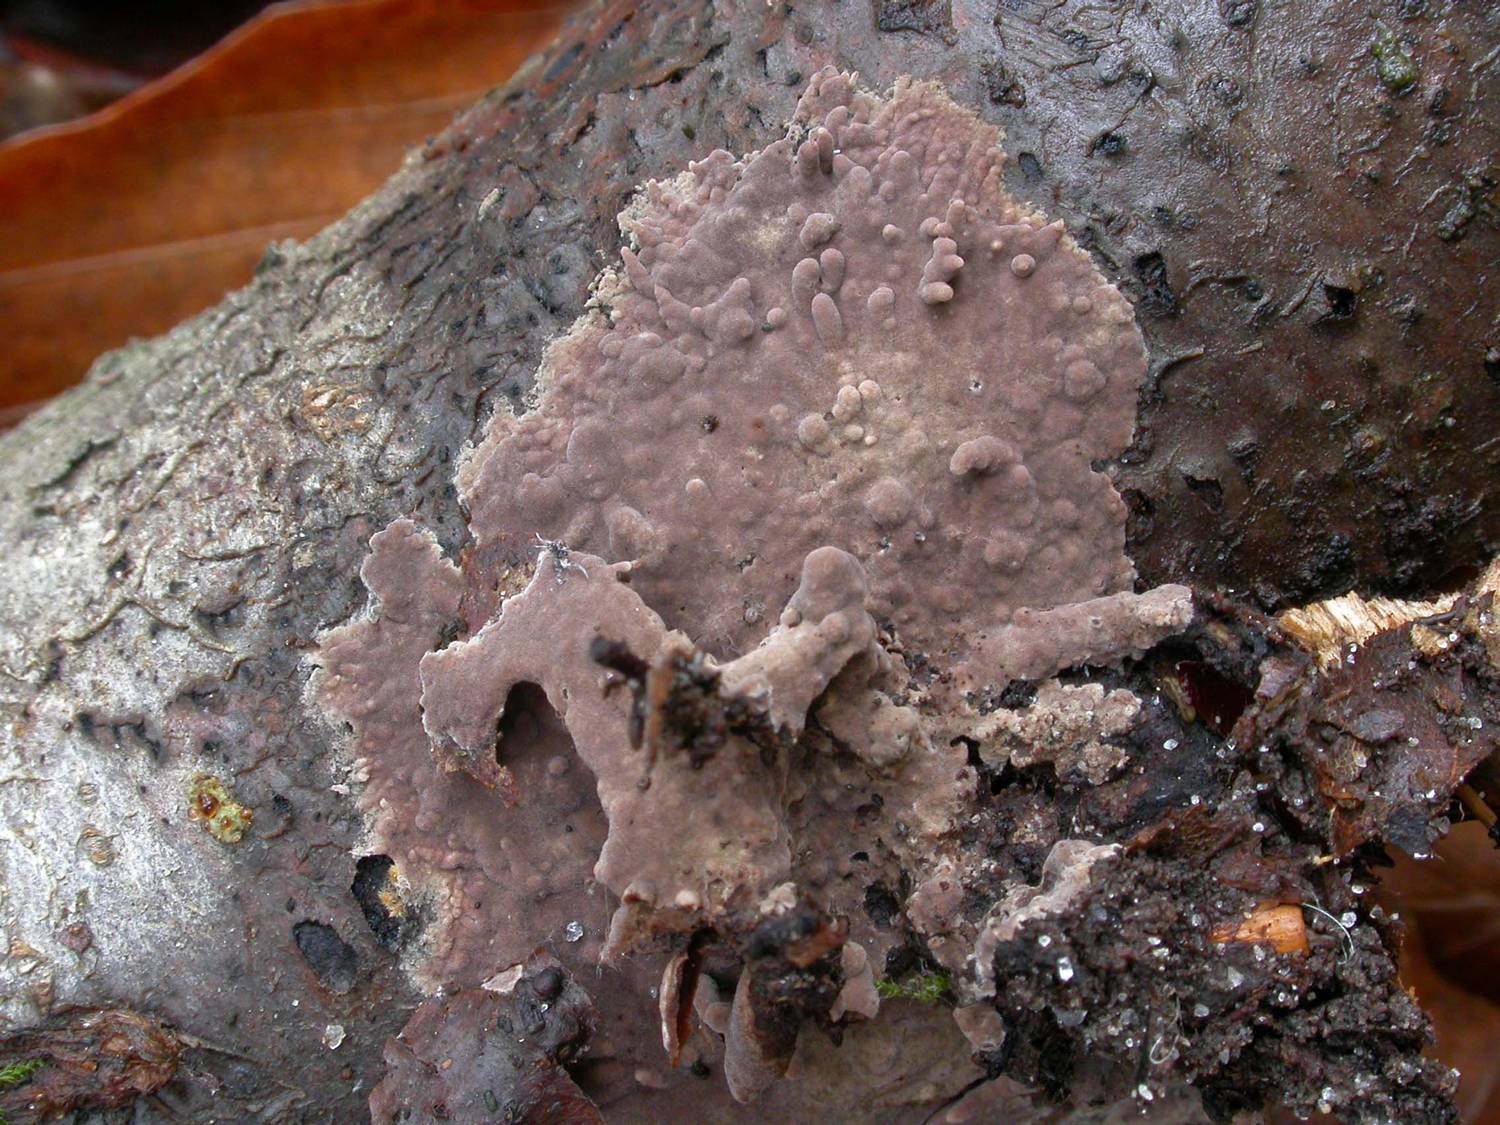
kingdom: Fungi
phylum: Basidiomycota
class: Agaricomycetes
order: Thelephorales
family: Thelephoraceae
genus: Thelephora
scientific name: Thelephora terrestris
